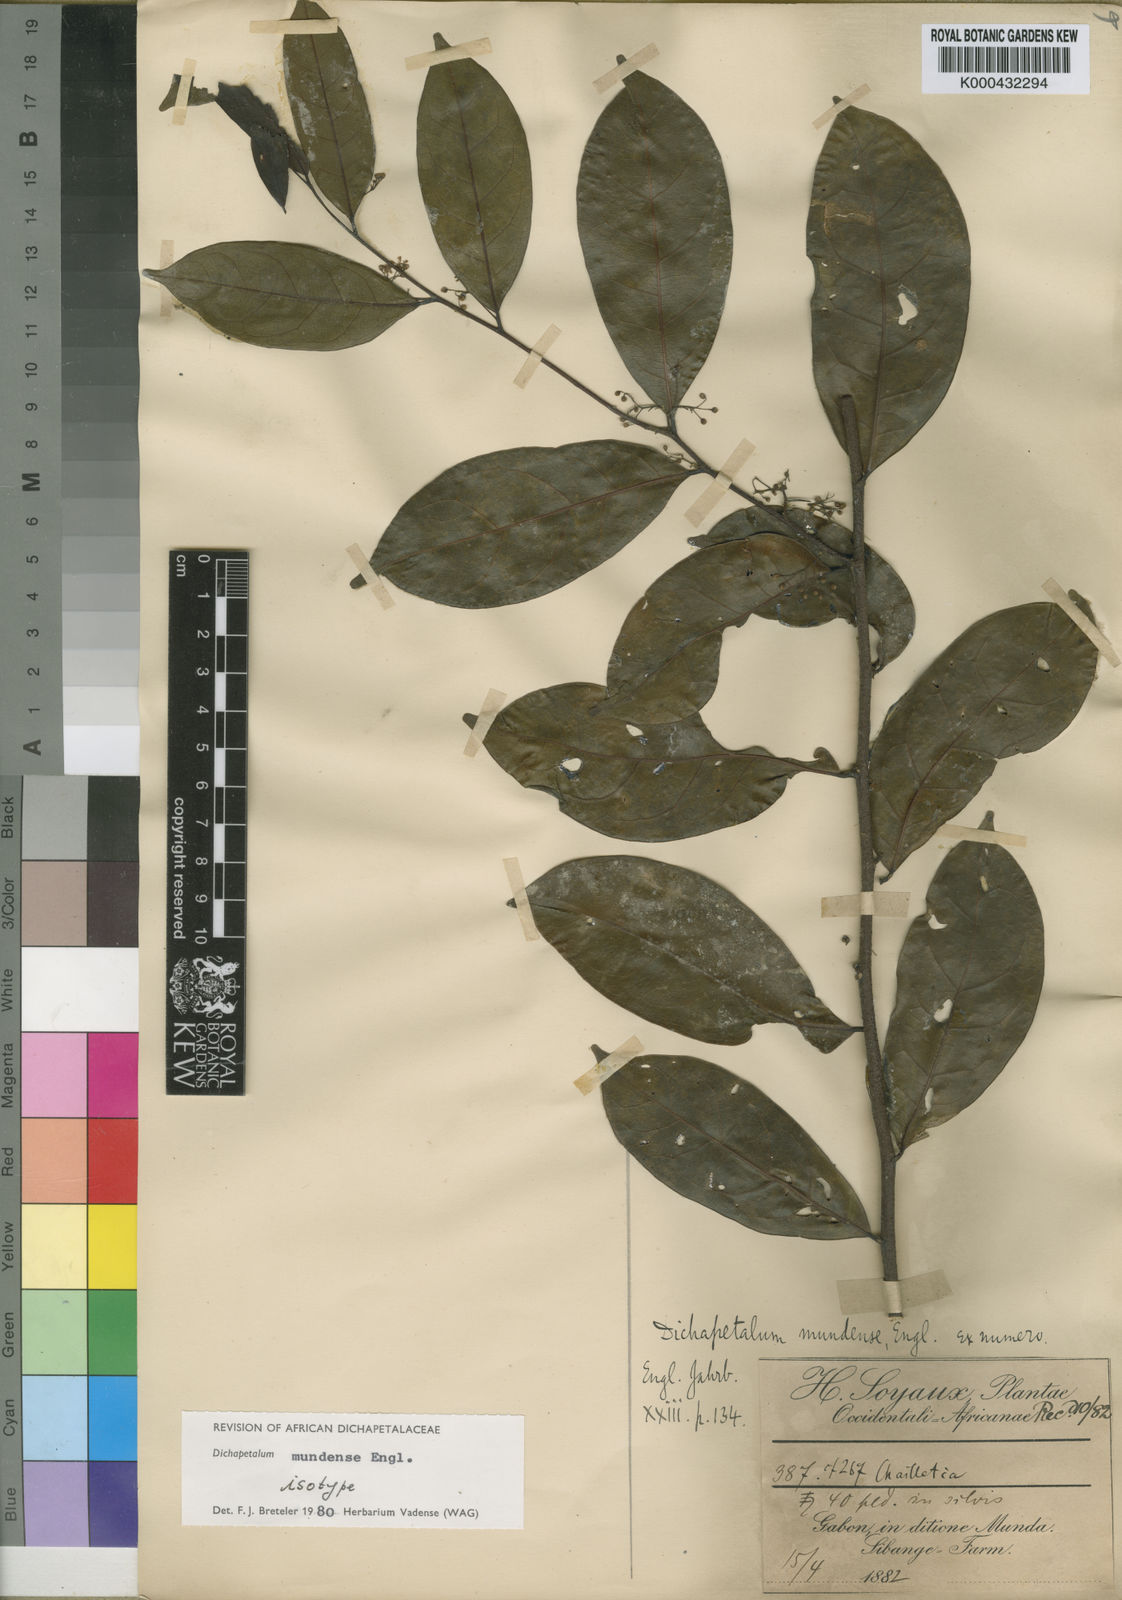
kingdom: Plantae
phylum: Tracheophyta
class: Magnoliopsida
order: Malpighiales
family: Dichapetalaceae
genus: Dichapetalum
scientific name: Dichapetalum mundense
